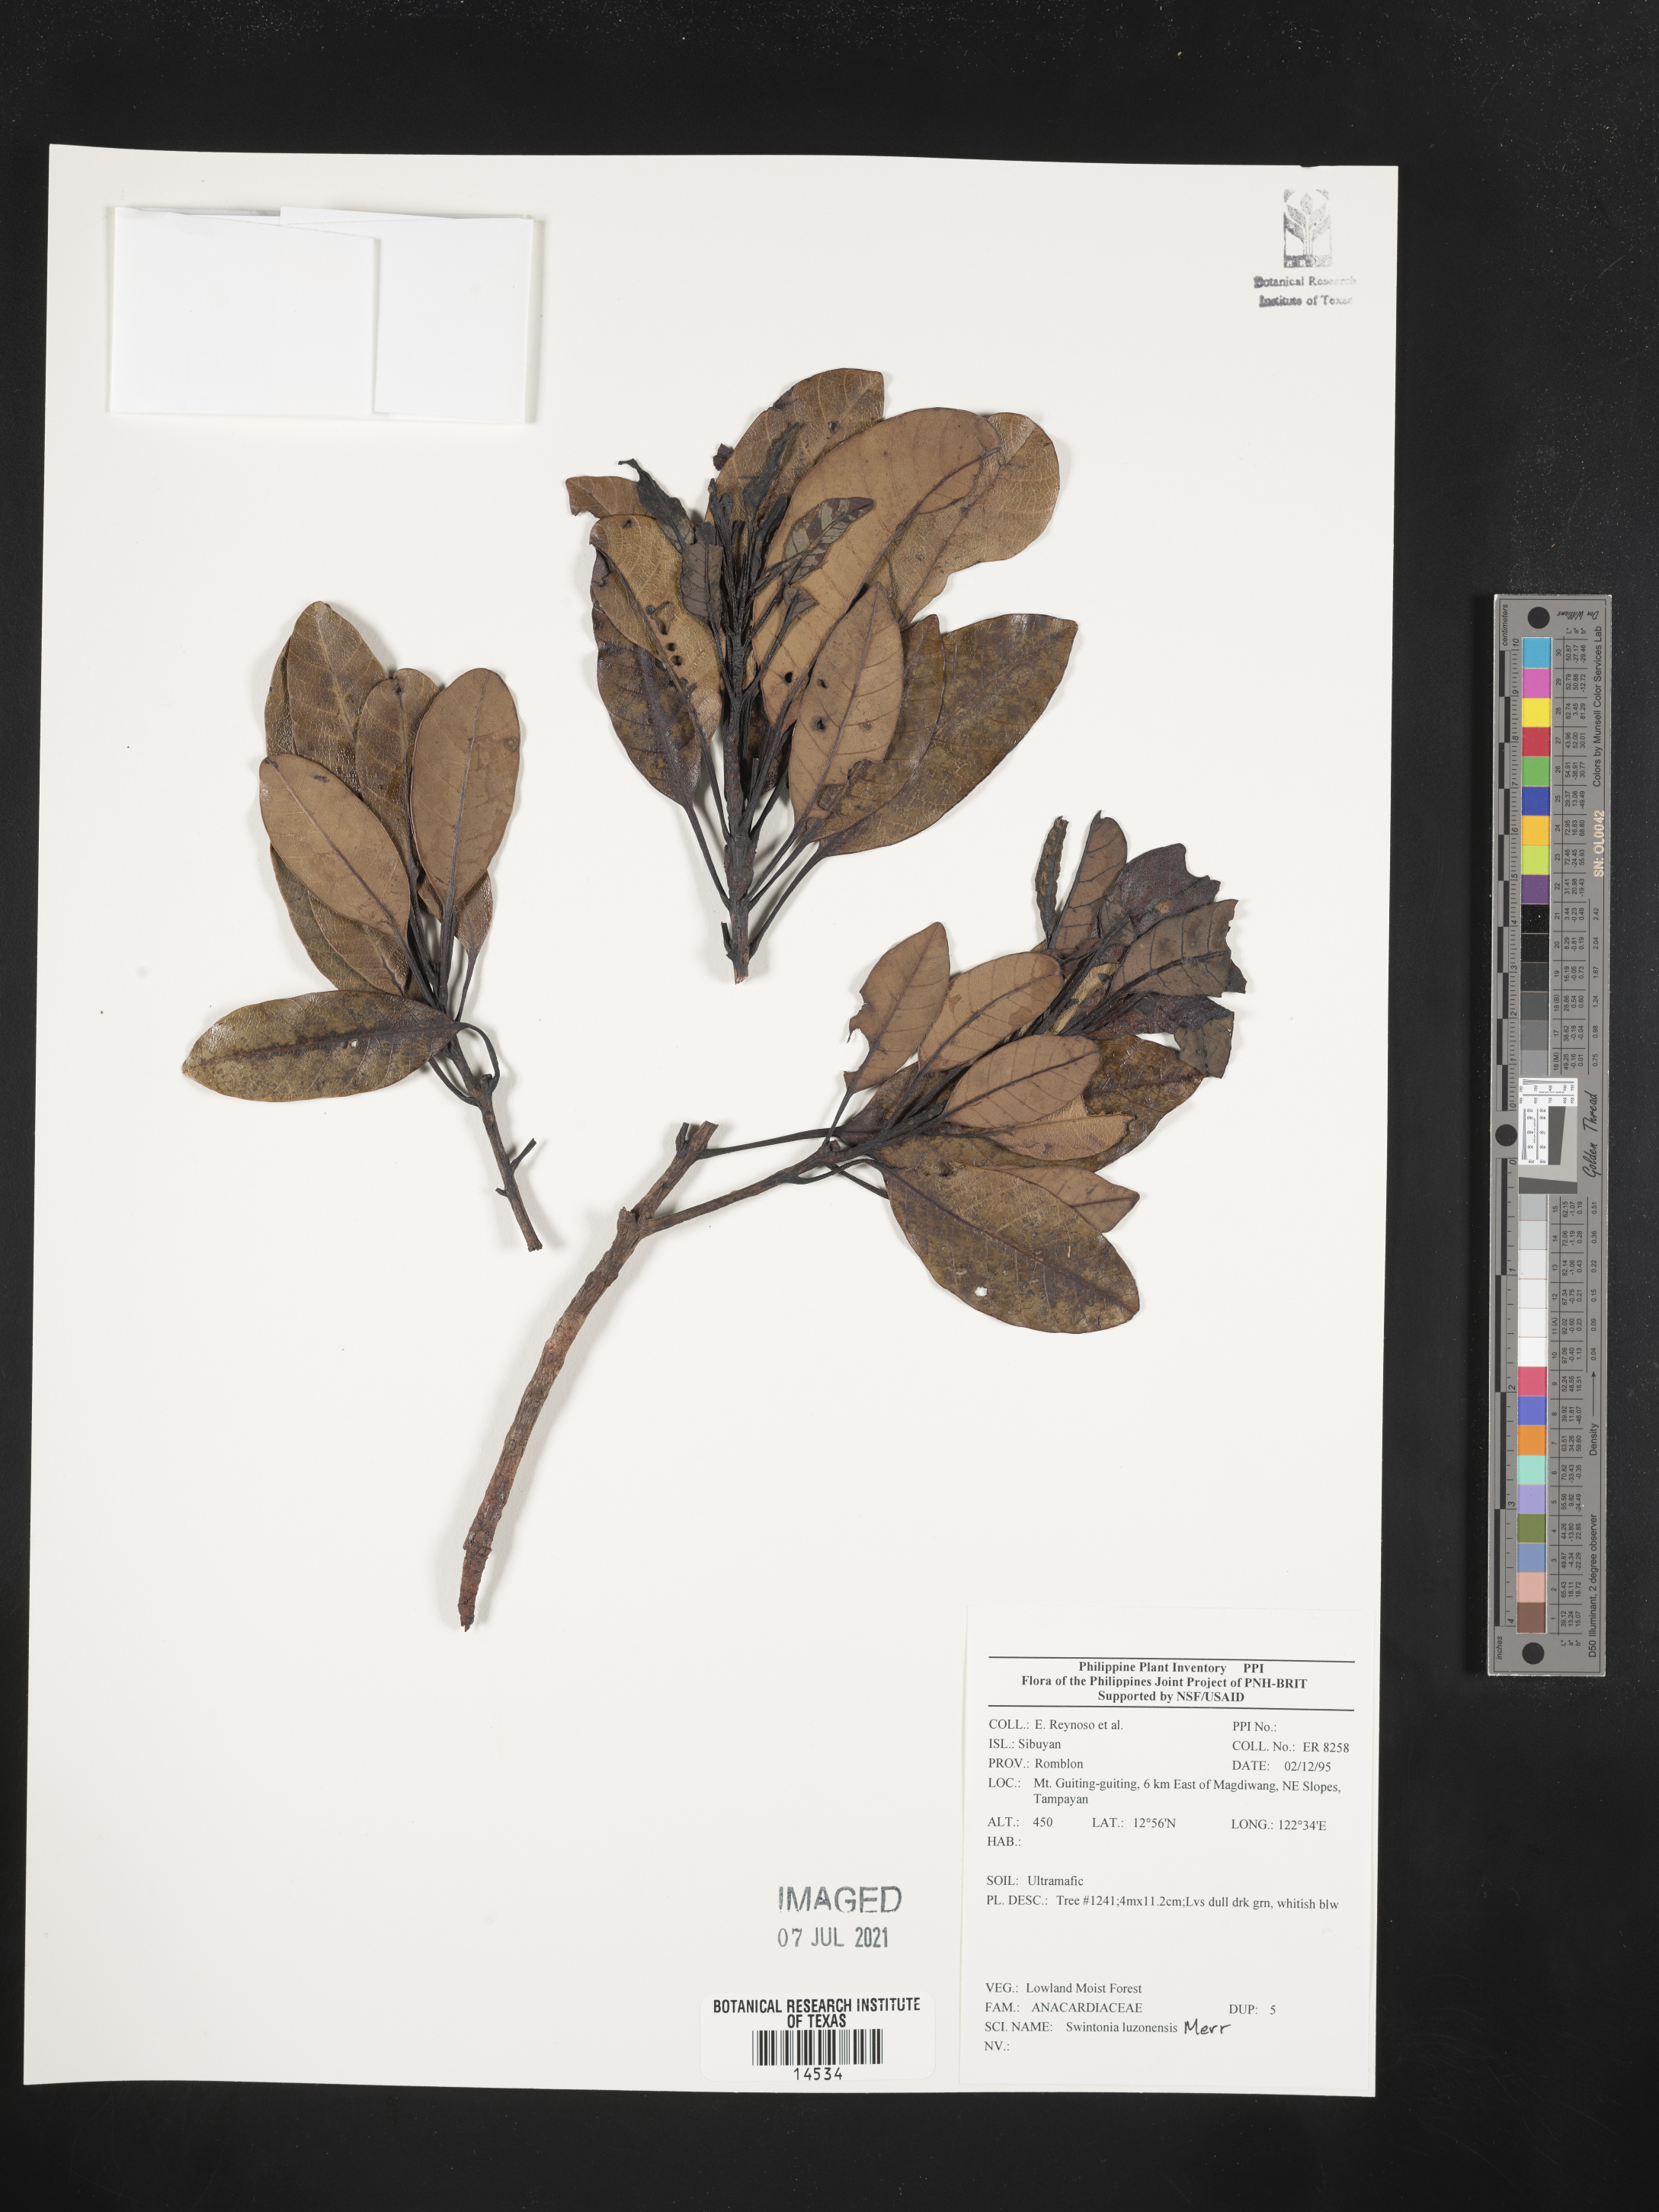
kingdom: Plantae
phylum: Tracheophyta
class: Magnoliopsida
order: Sapindales
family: Anacardiaceae
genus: Swintonia
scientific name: Swintonia acuta
